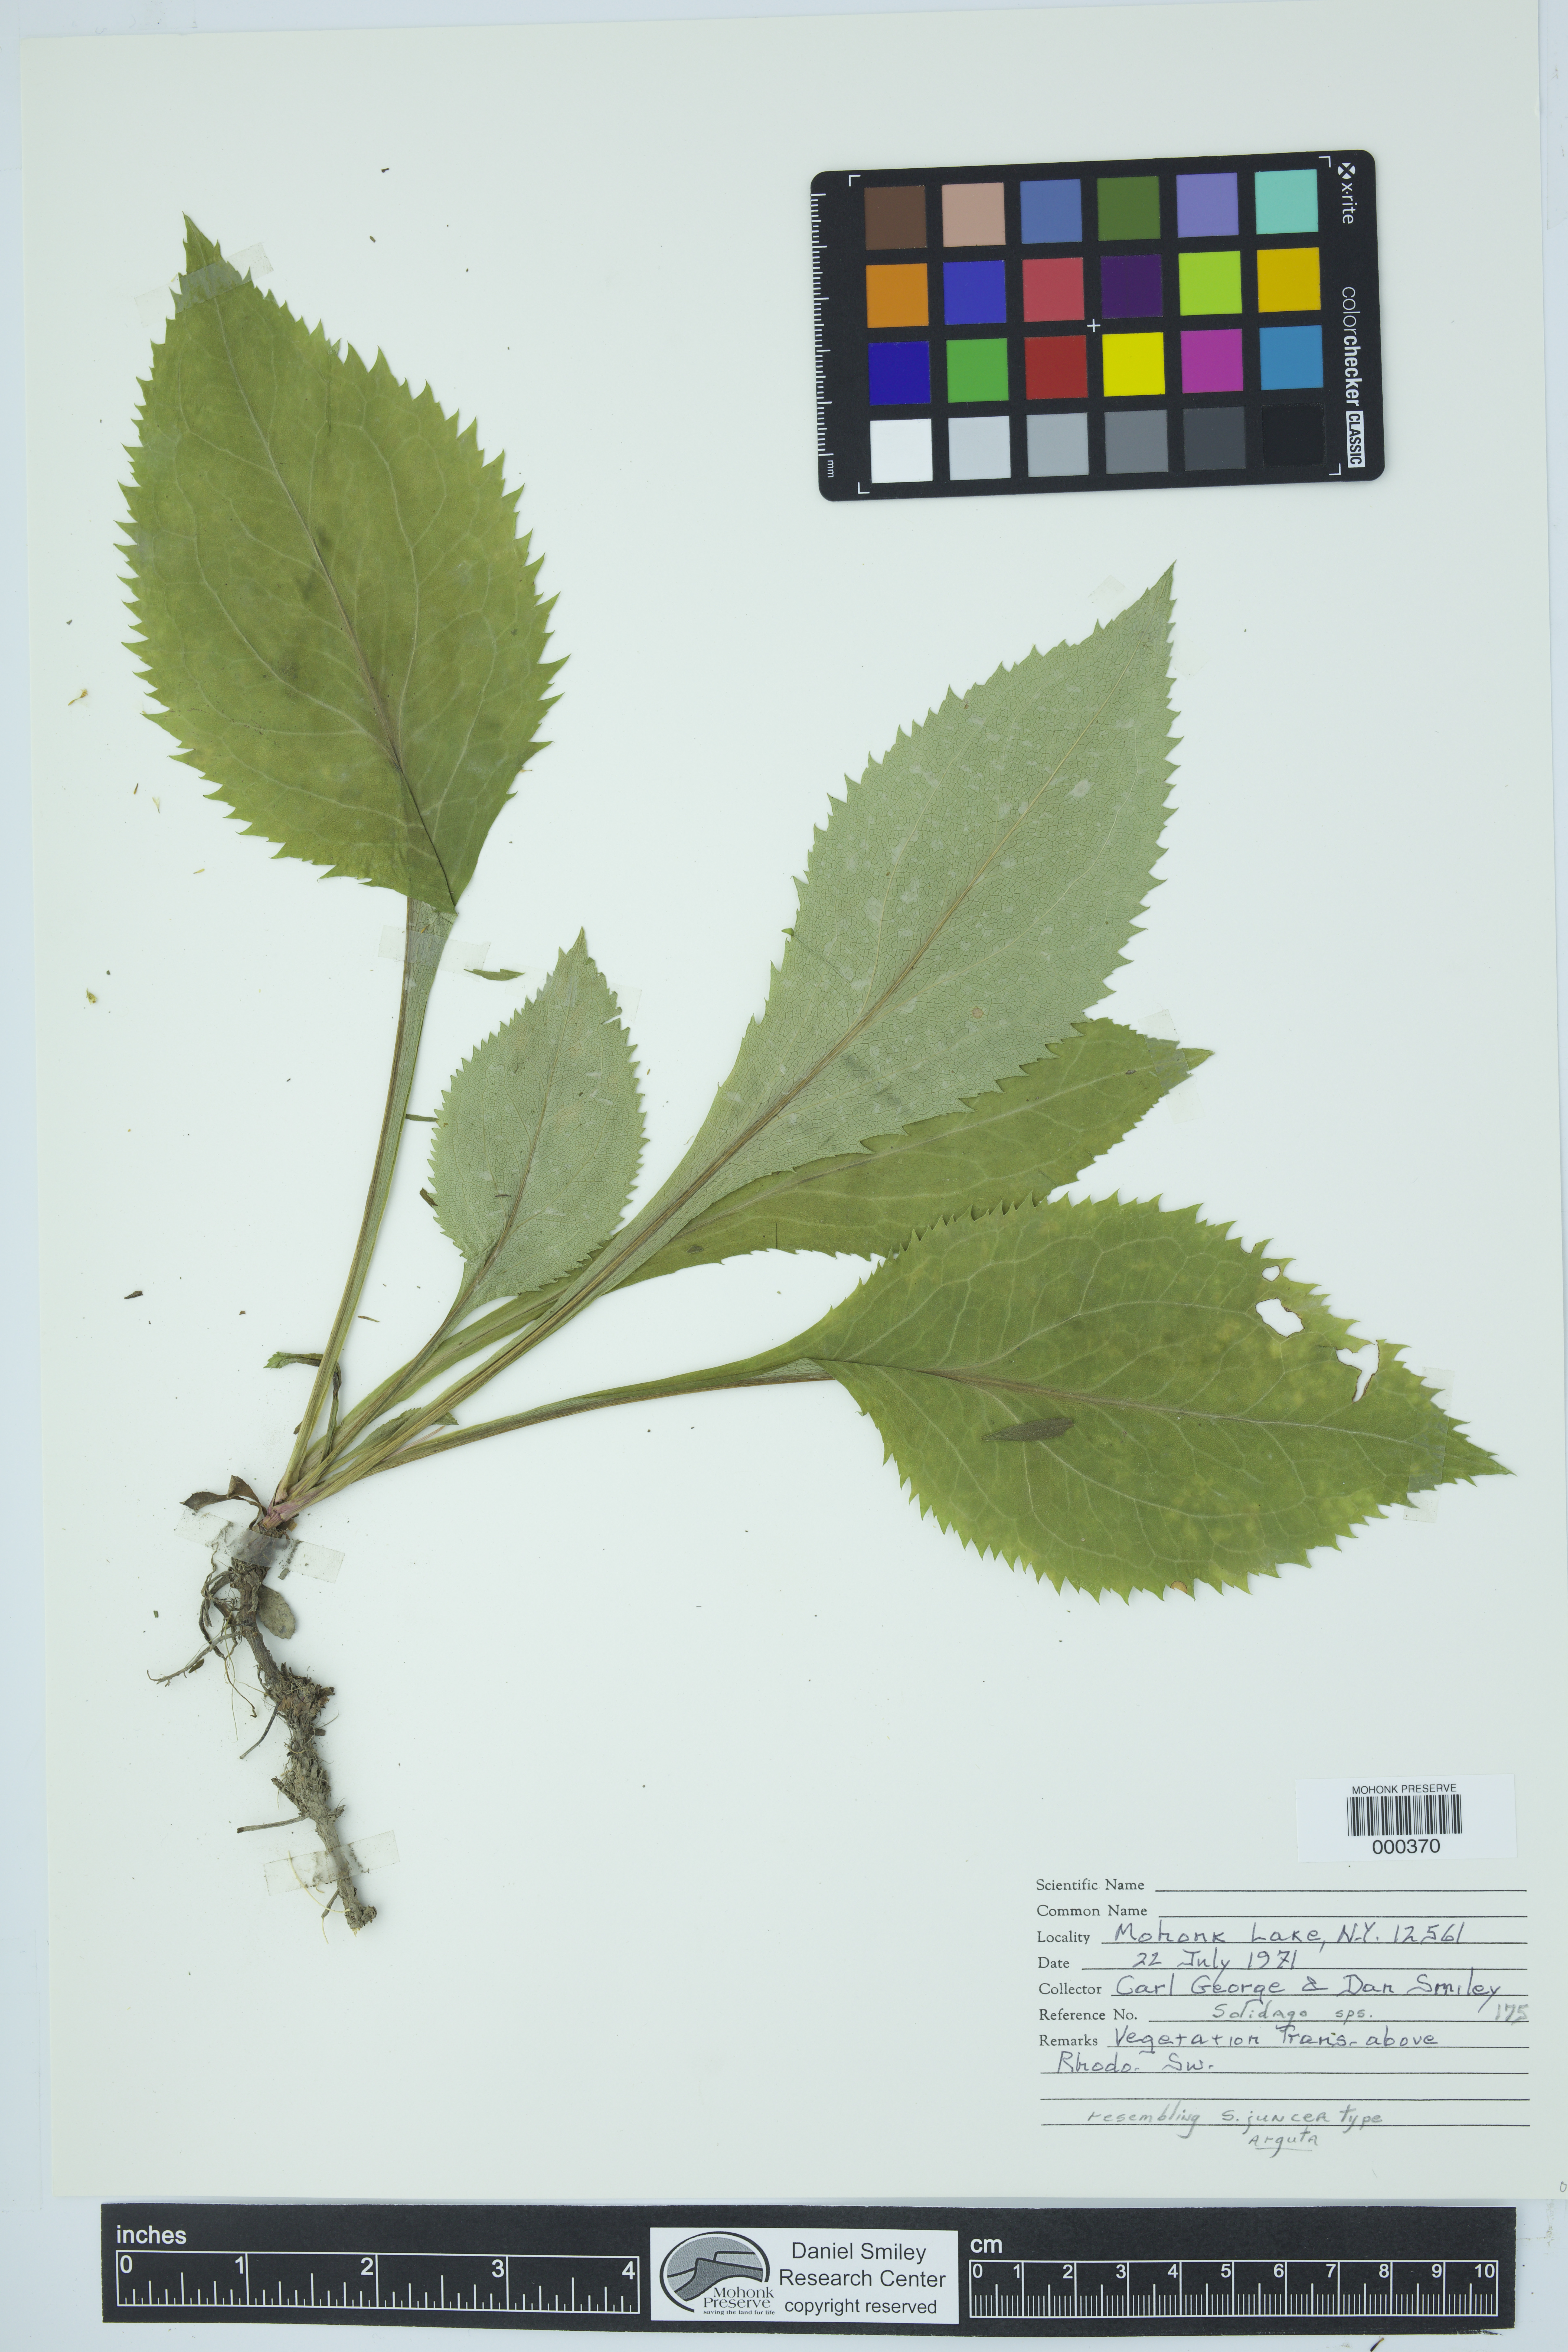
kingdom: Plantae
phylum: Tracheophyta
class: Magnoliopsida
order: Asterales
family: Asteraceae
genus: Solidago
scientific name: Solidago
